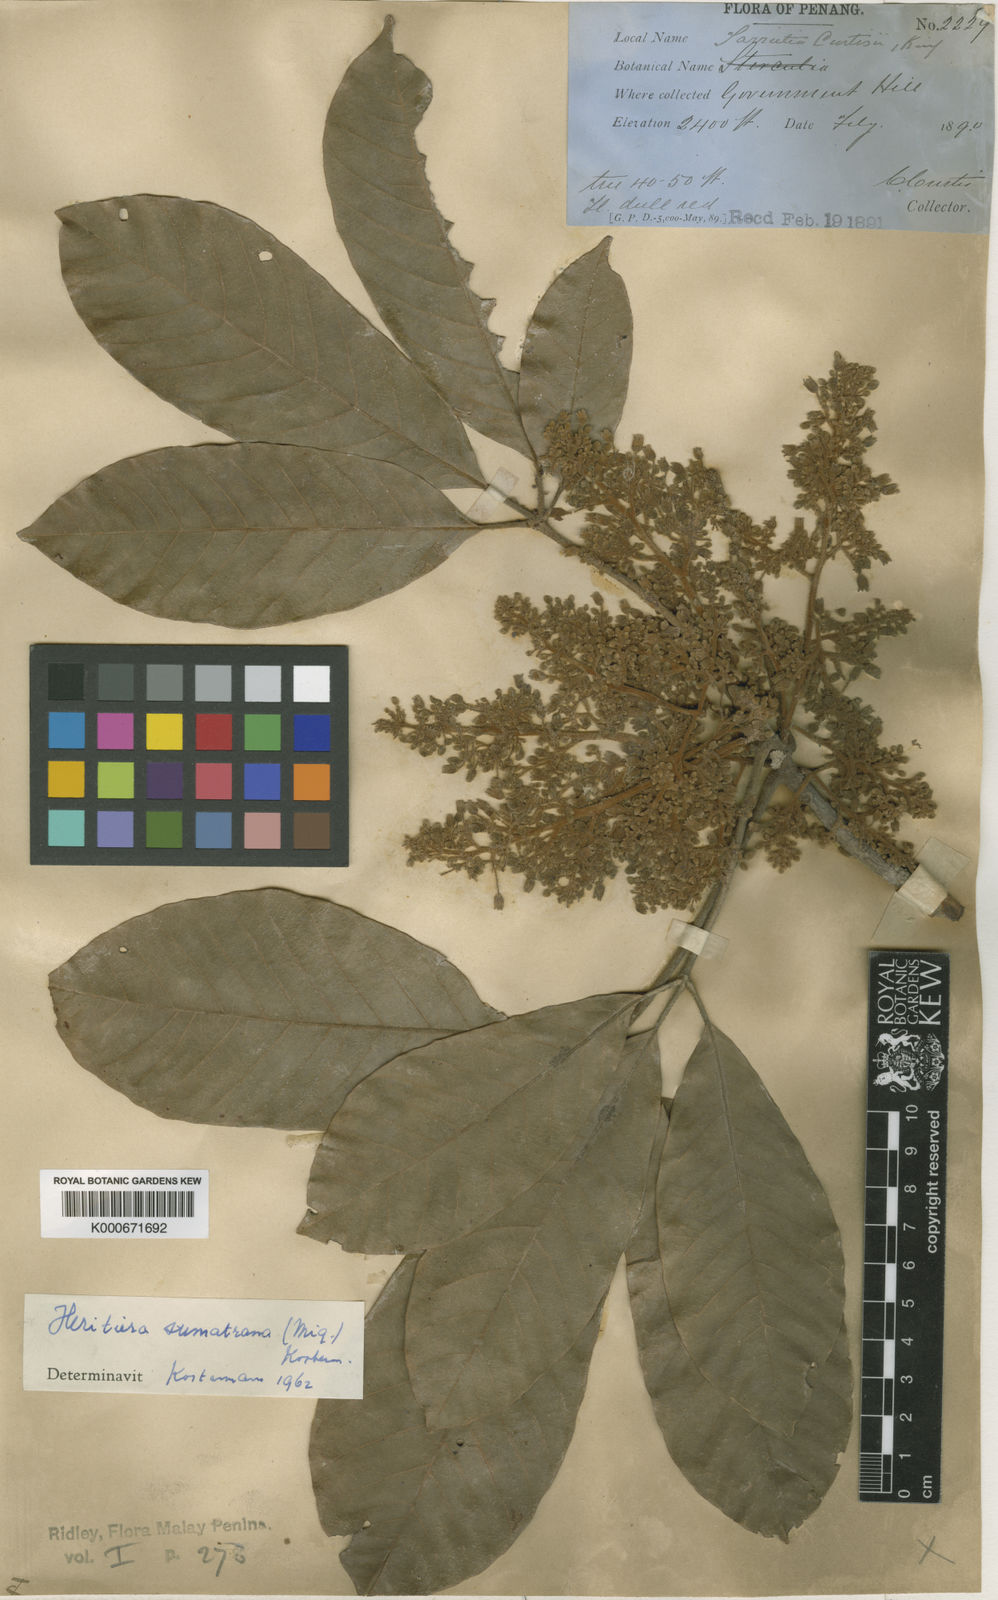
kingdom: Plantae
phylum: Tracheophyta
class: Magnoliopsida
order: Malvales
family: Malvaceae
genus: Heritiera
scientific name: Heritiera sumatrana
